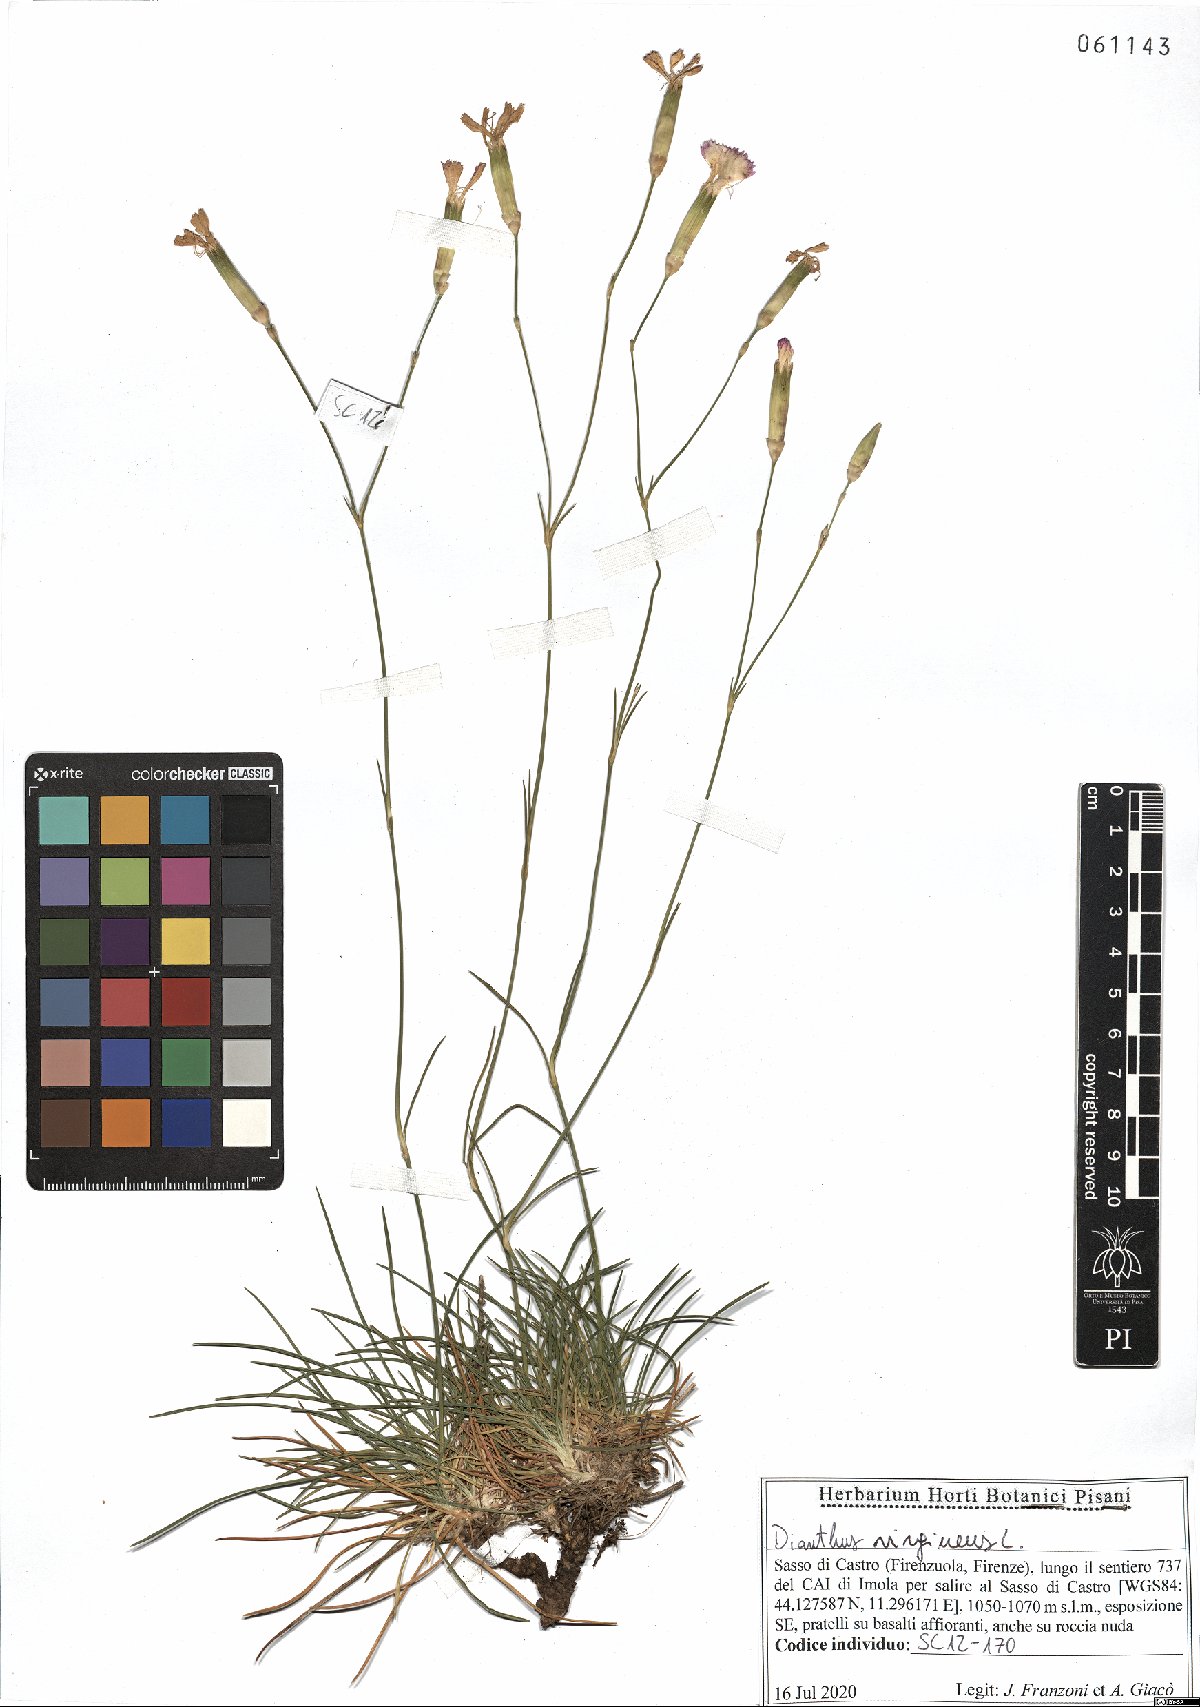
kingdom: Plantae
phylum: Tracheophyta
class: Magnoliopsida
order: Caryophyllales
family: Caryophyllaceae
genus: Dianthus
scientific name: Dianthus virgineus
